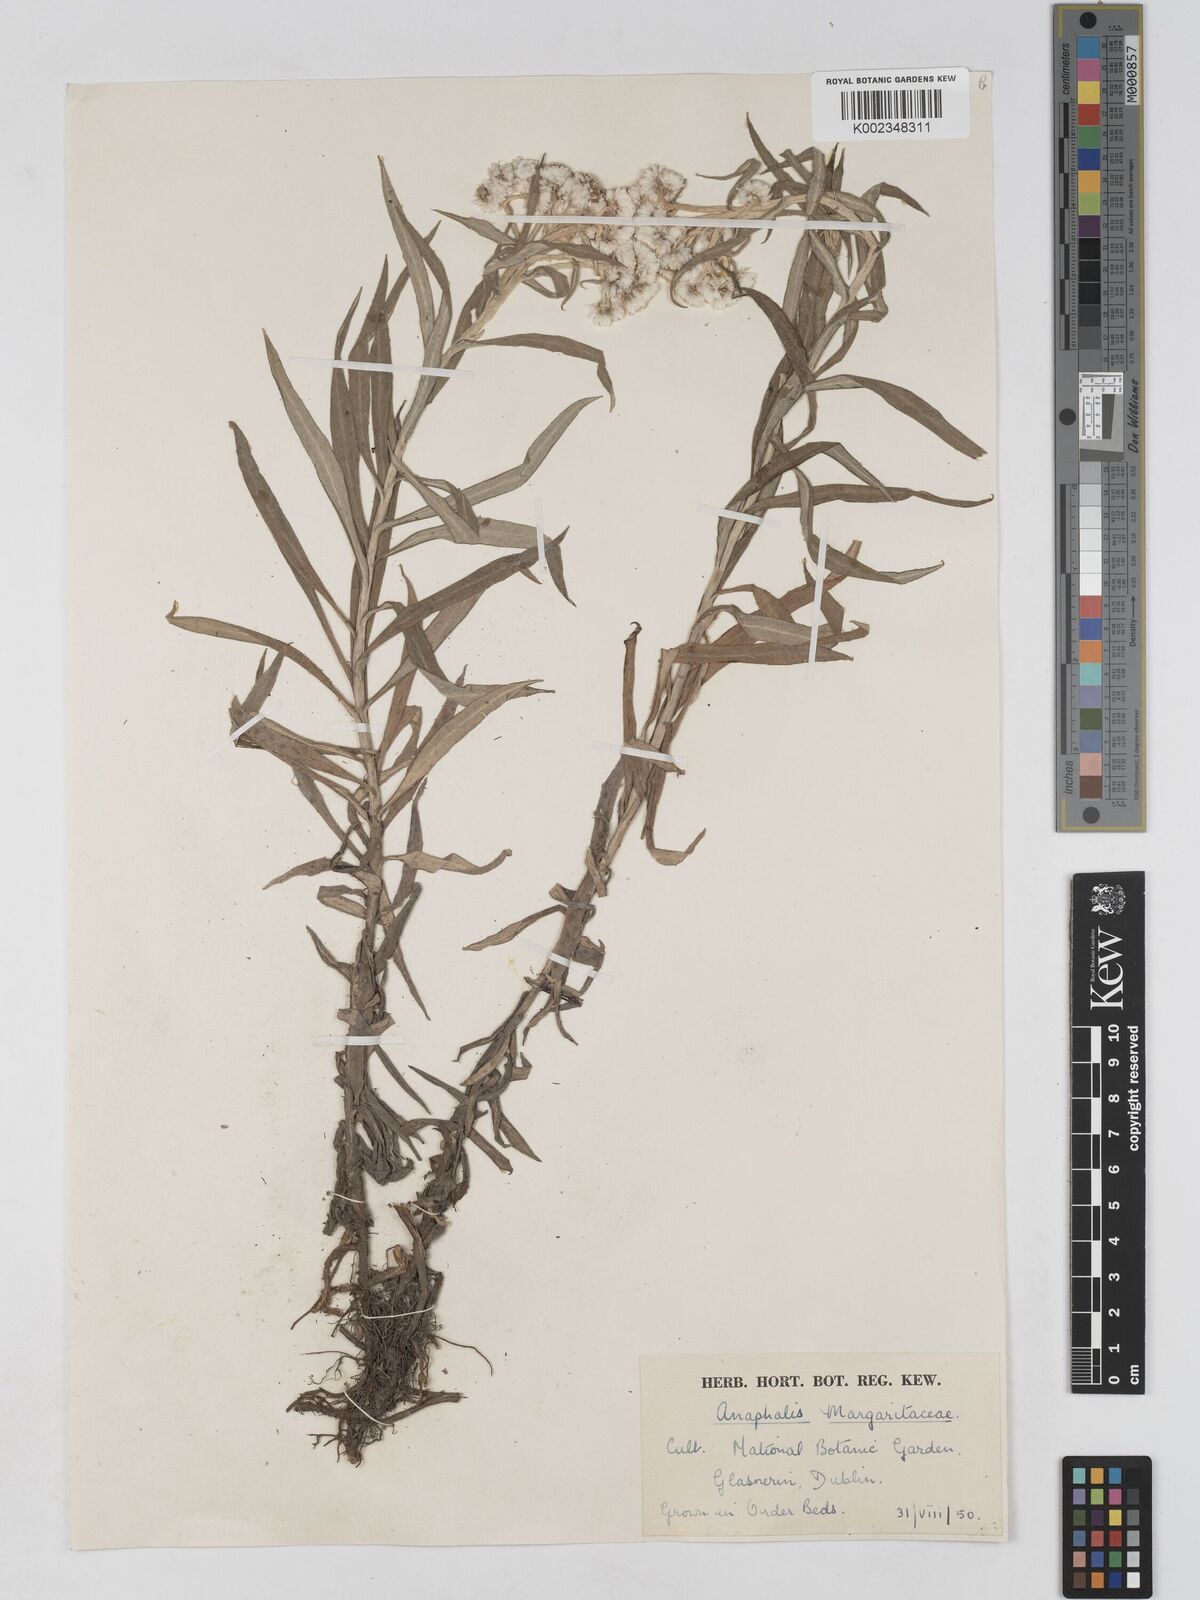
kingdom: Plantae
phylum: Tracheophyta
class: Magnoliopsida
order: Asterales
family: Asteraceae
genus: Anaphalis
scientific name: Anaphalis margaritacea
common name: Pearly everlasting
